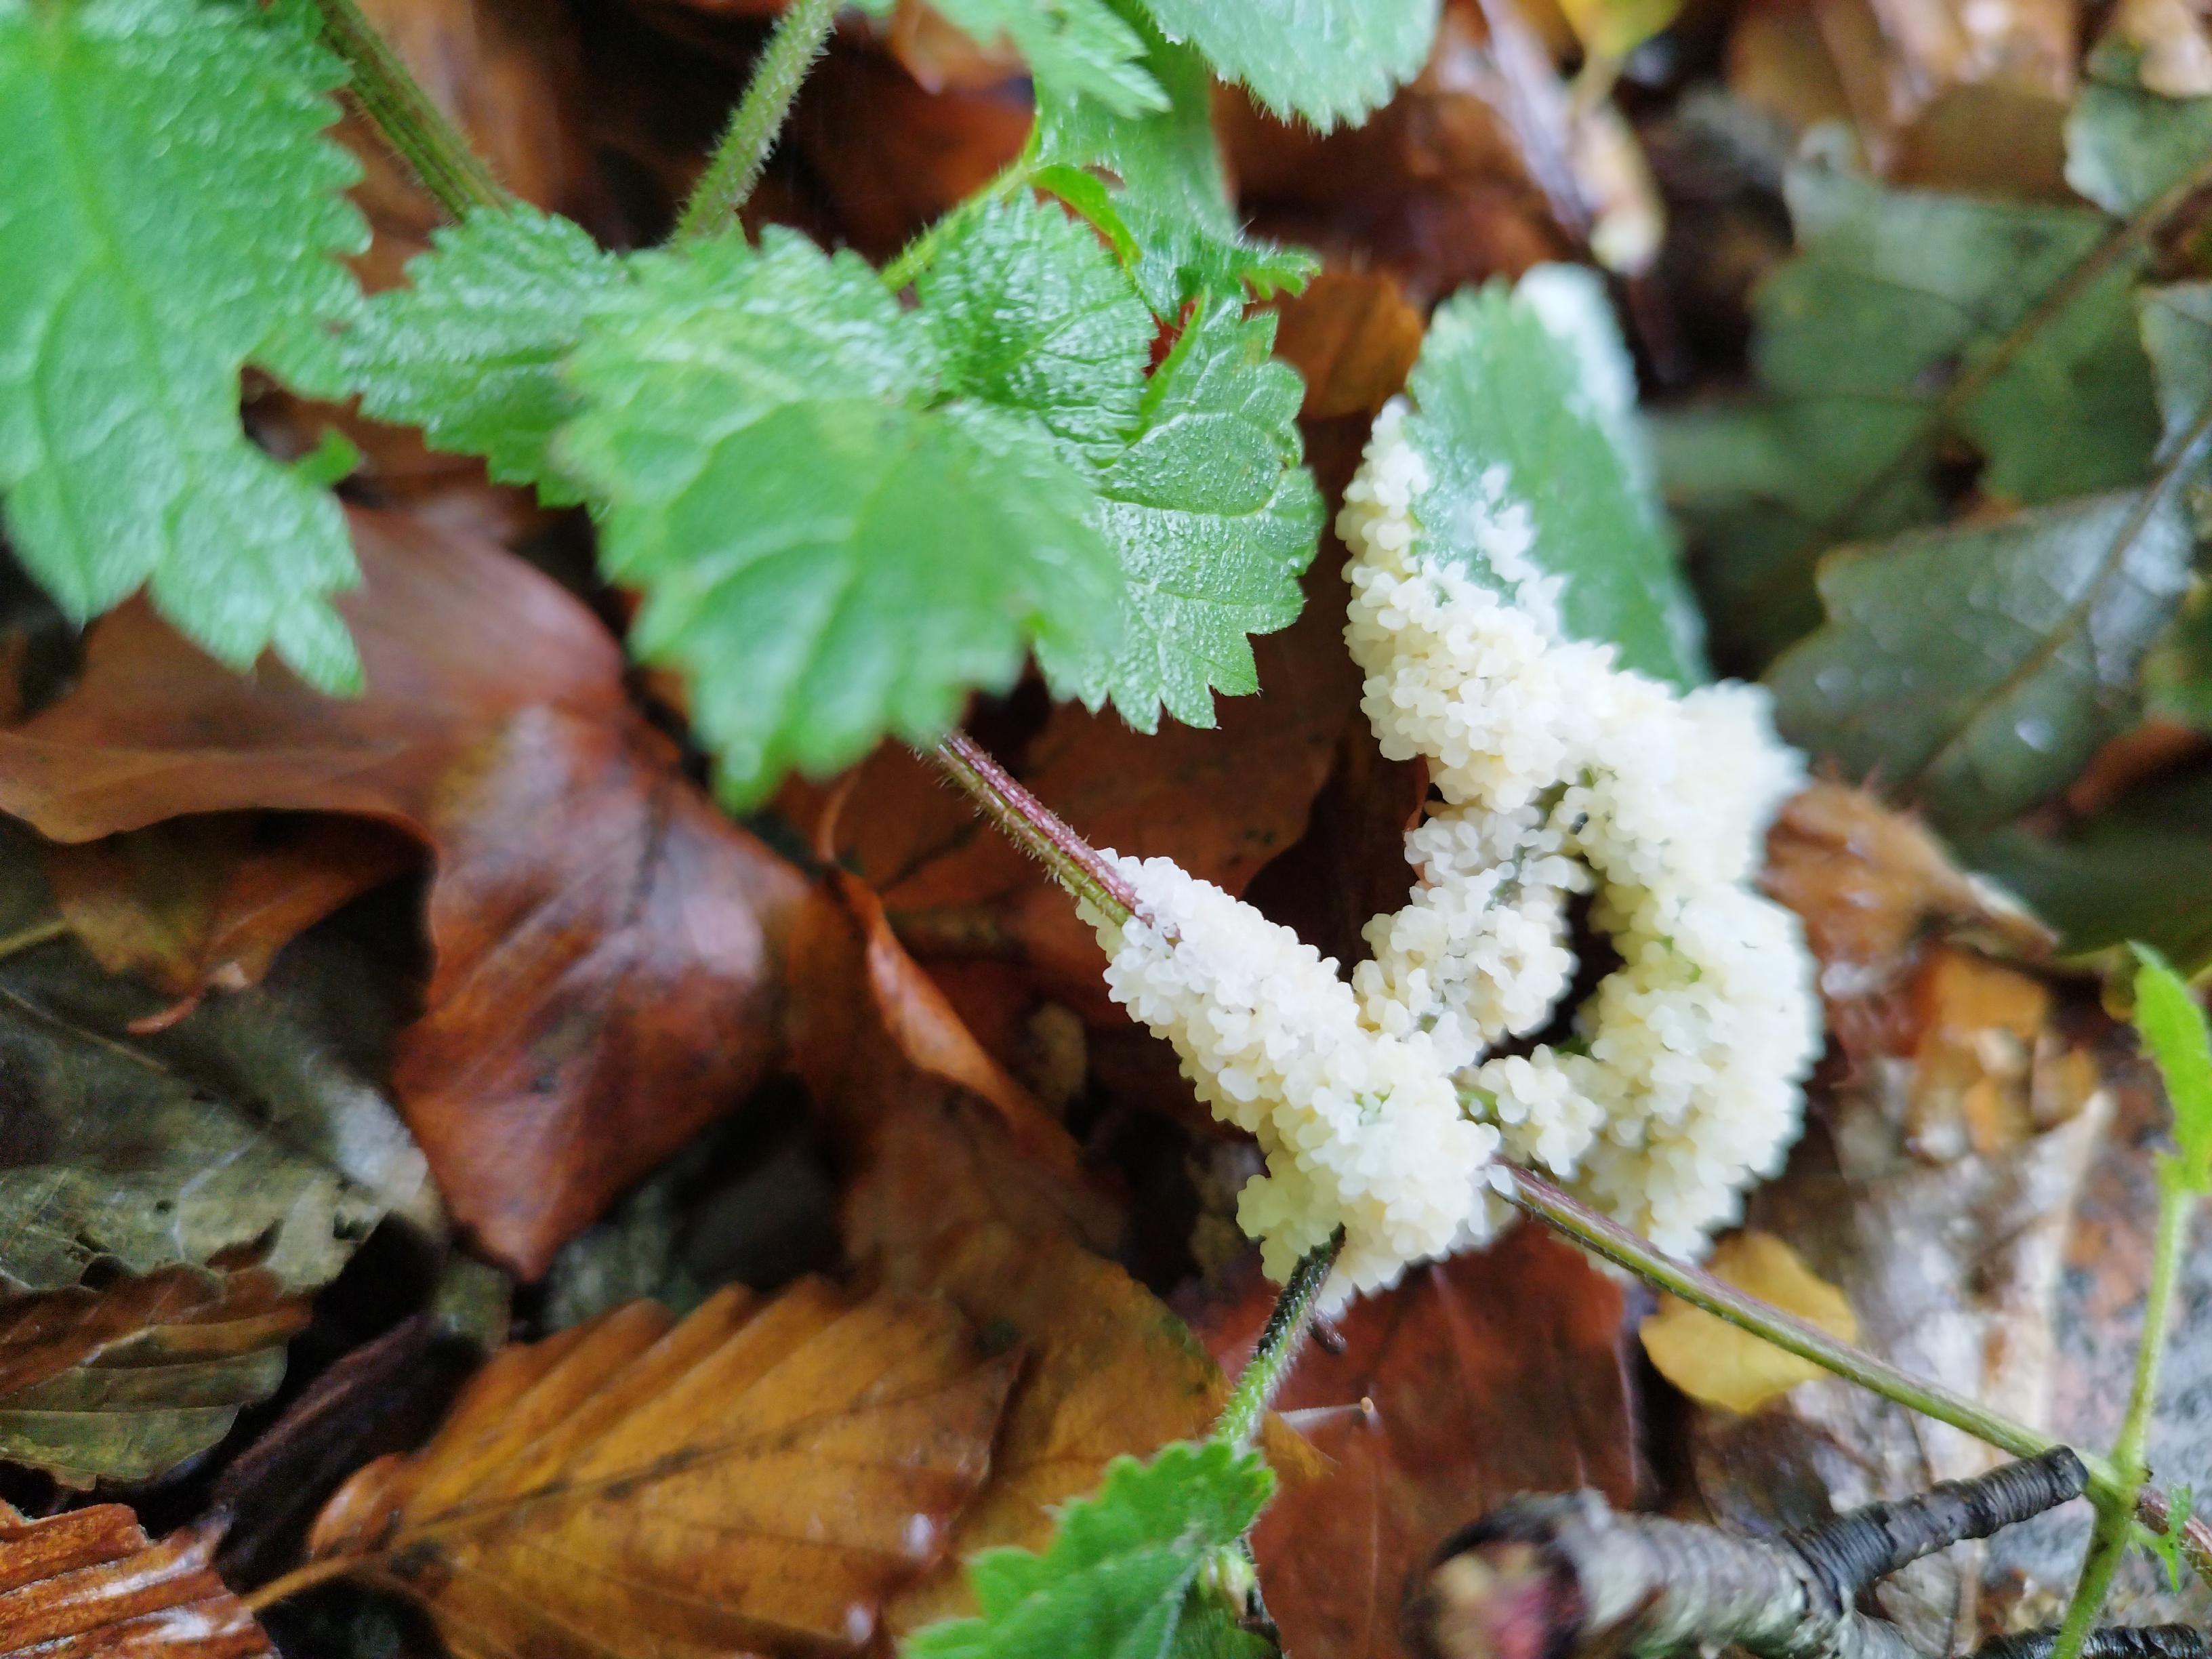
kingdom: Protozoa
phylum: Mycetozoa
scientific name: Mycetozoa
